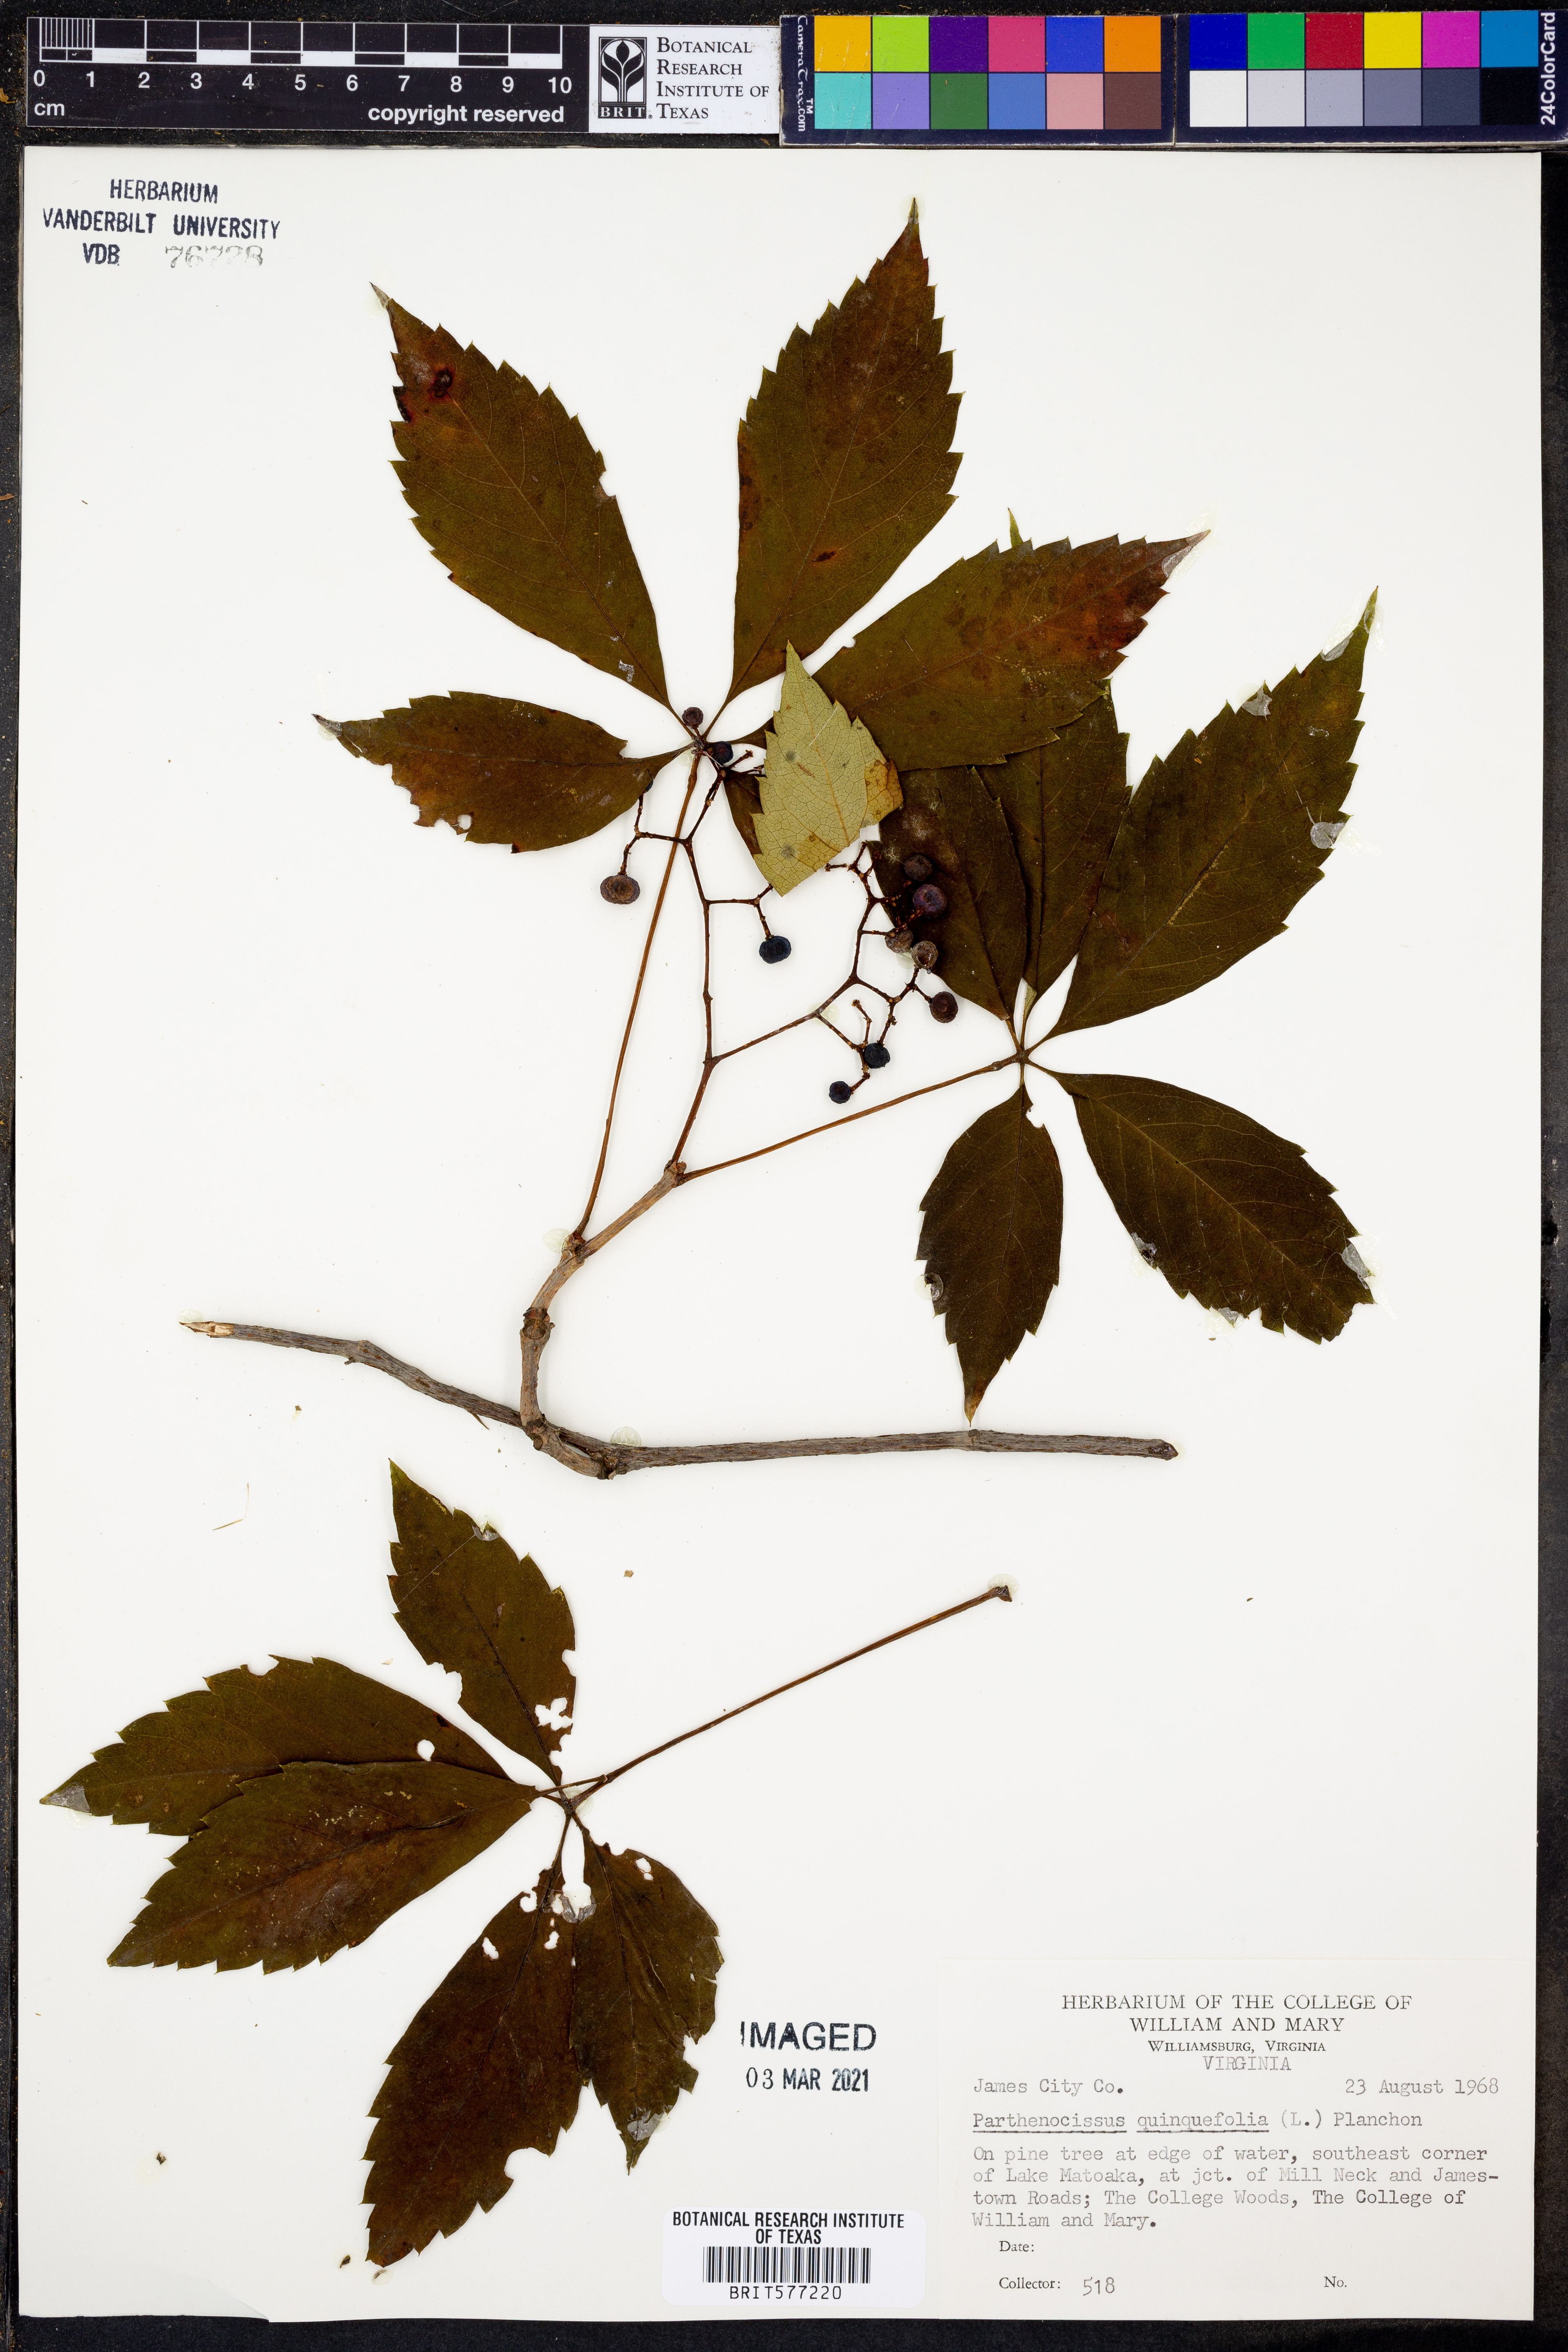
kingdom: Plantae
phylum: Tracheophyta
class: Magnoliopsida
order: Vitales
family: Vitaceae
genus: Parthenocissus
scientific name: Parthenocissus quinquefolia
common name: Virginia-creeper
